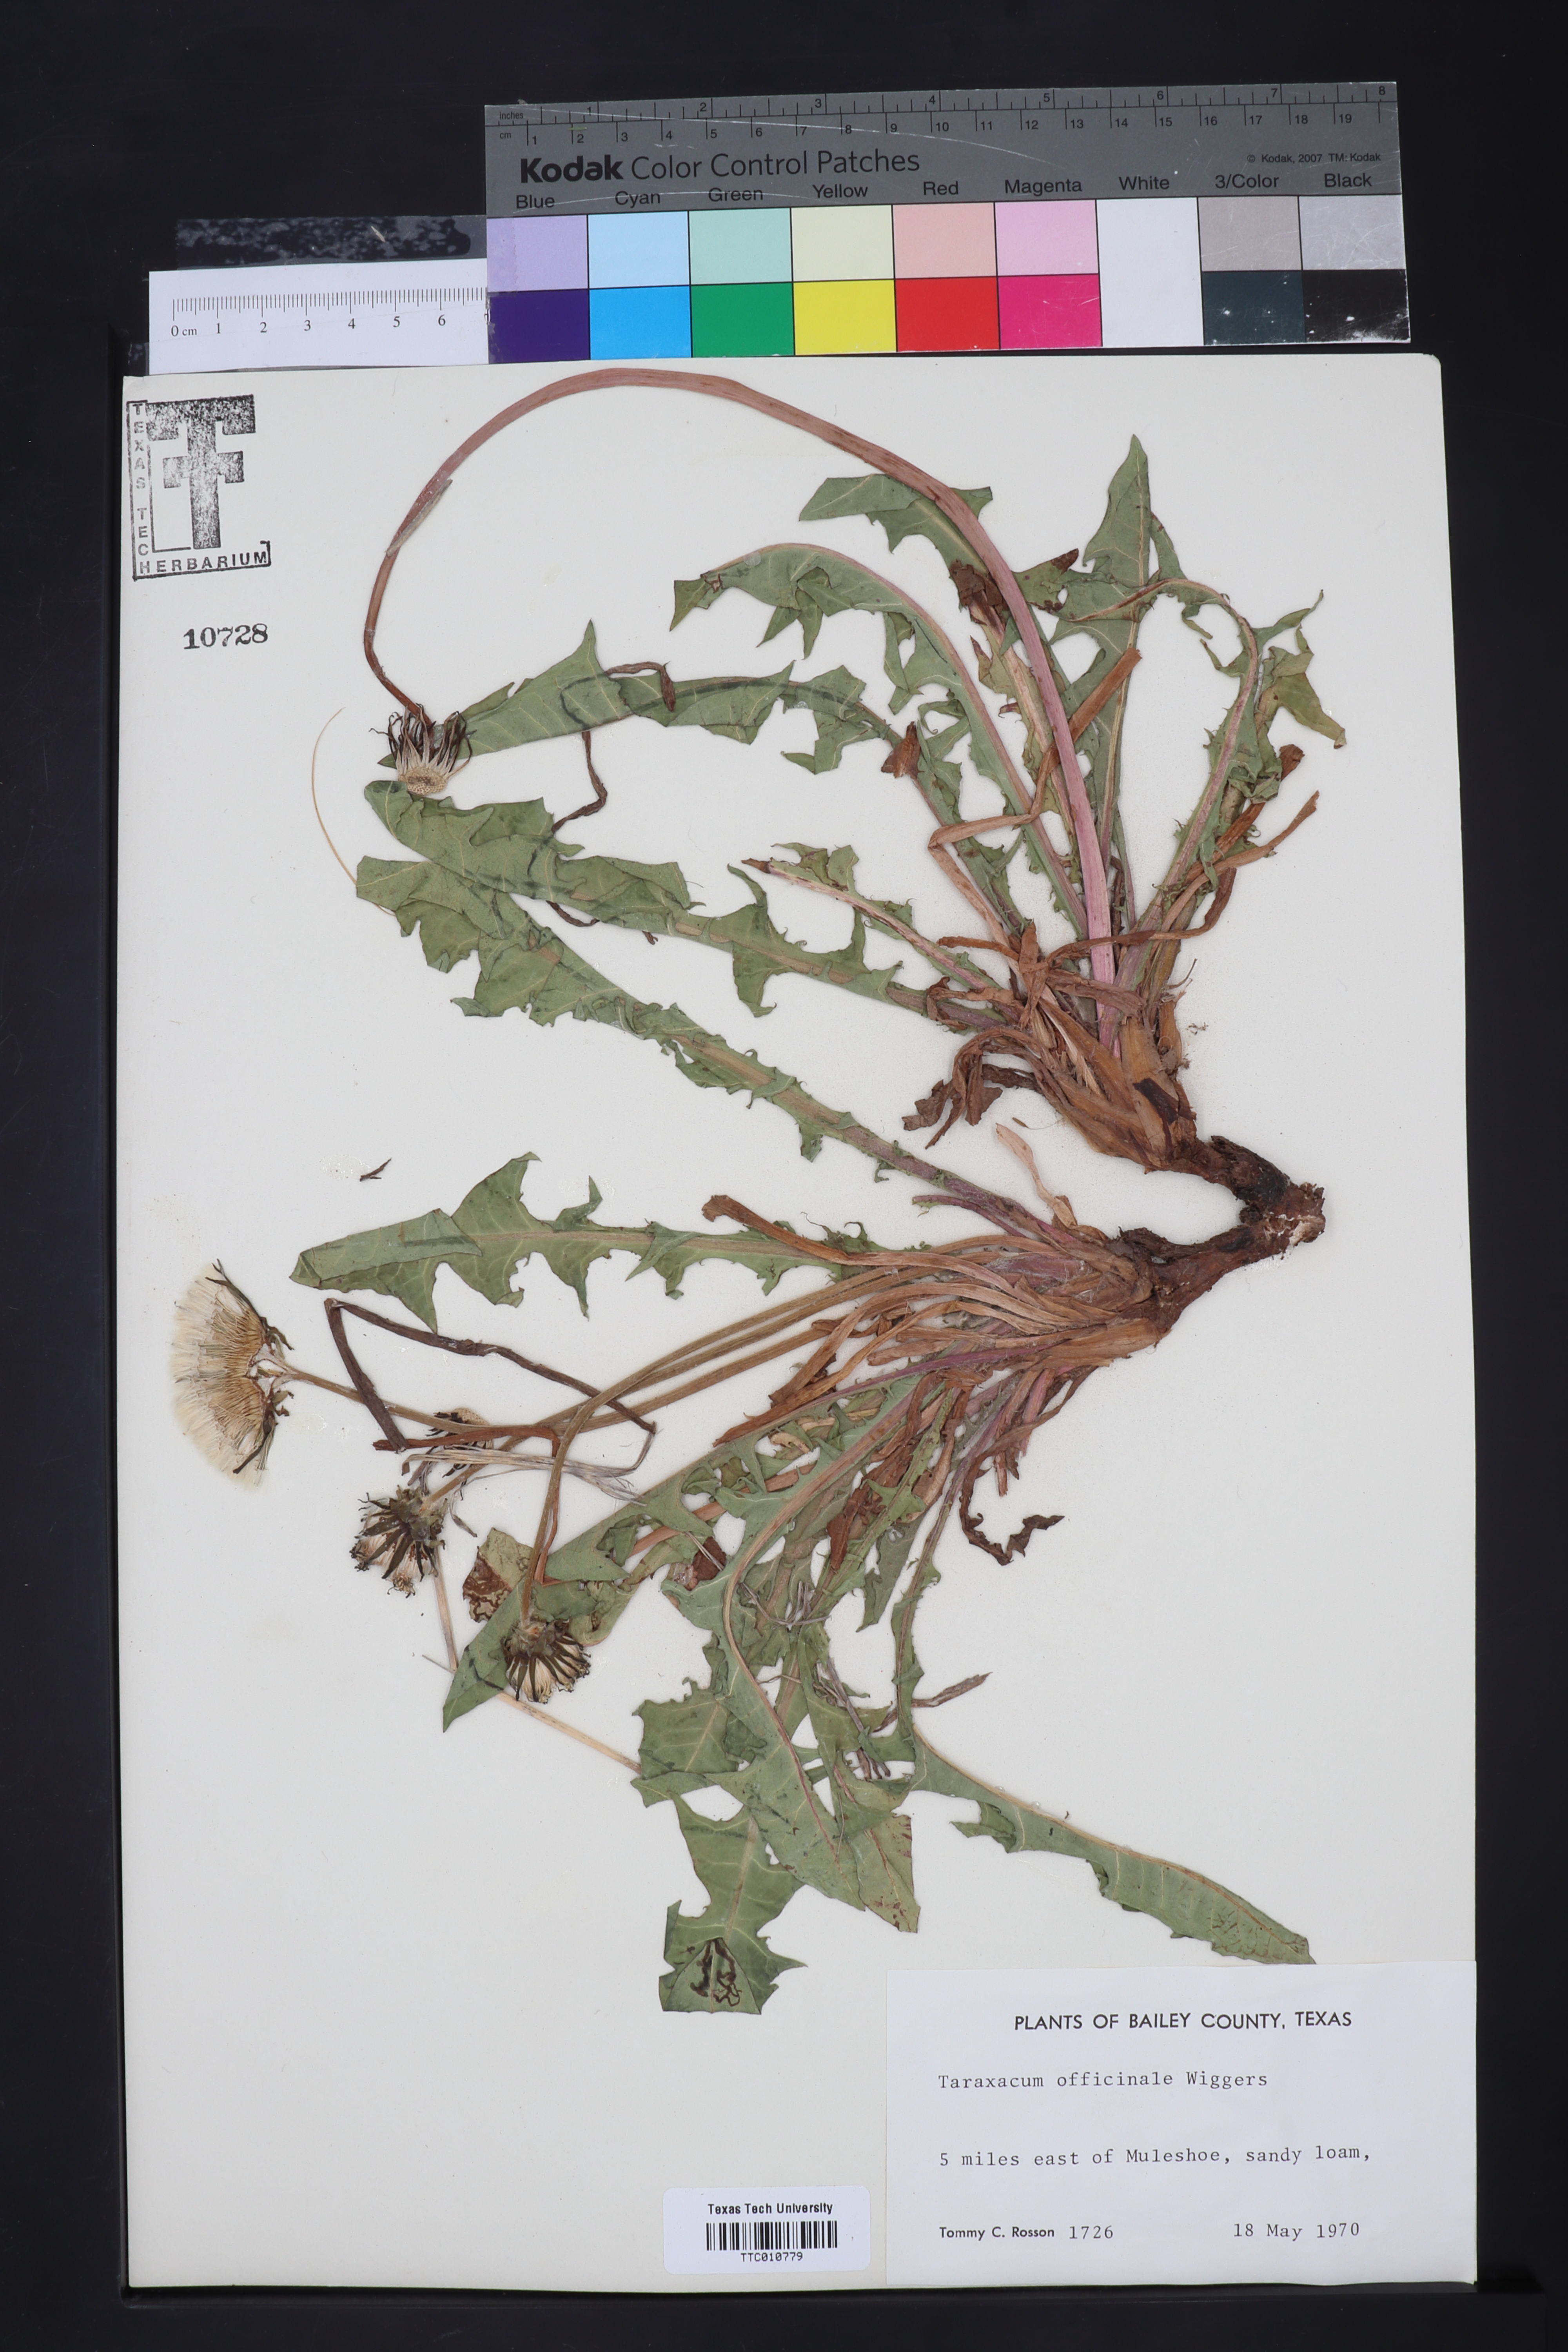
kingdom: Plantae
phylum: Tracheophyta
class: Magnoliopsida
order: Asterales
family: Asteraceae
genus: Taraxacum
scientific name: Taraxacum officinale
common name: Common dandelion
